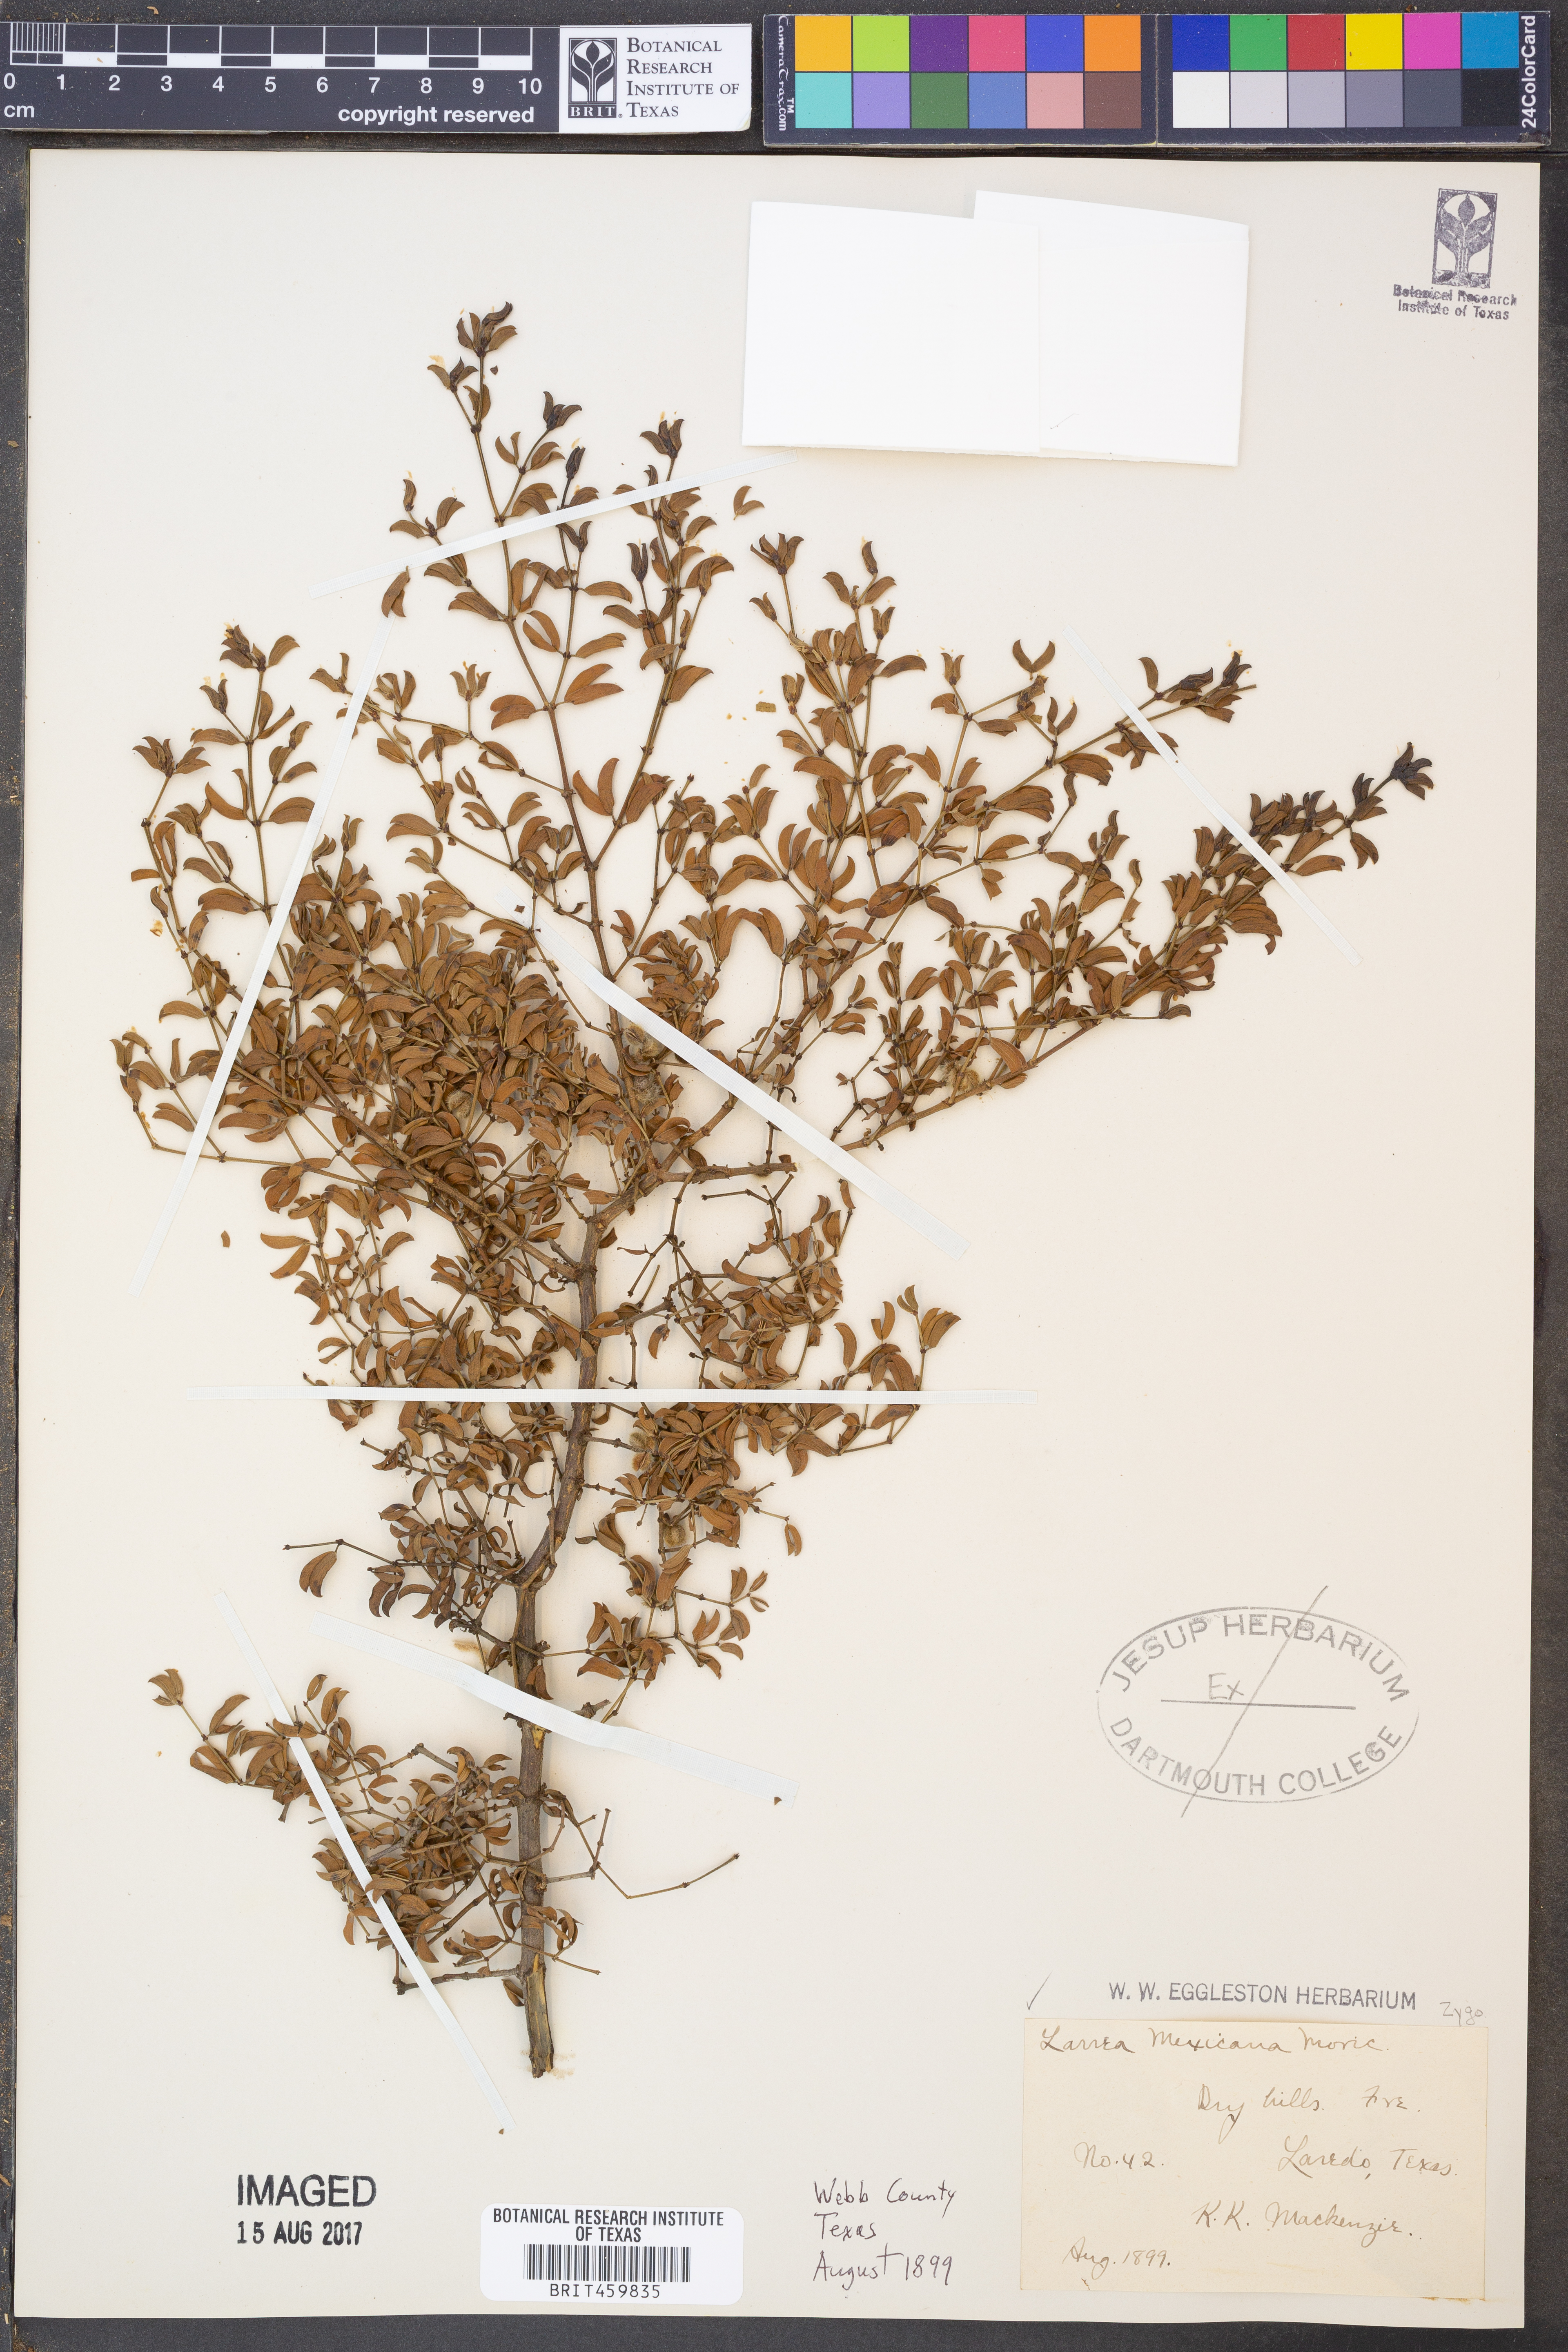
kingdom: Plantae
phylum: Tracheophyta
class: Magnoliopsida
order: Zygophyllales
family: Zygophyllaceae
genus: Larrea
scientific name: Larrea tridentata
